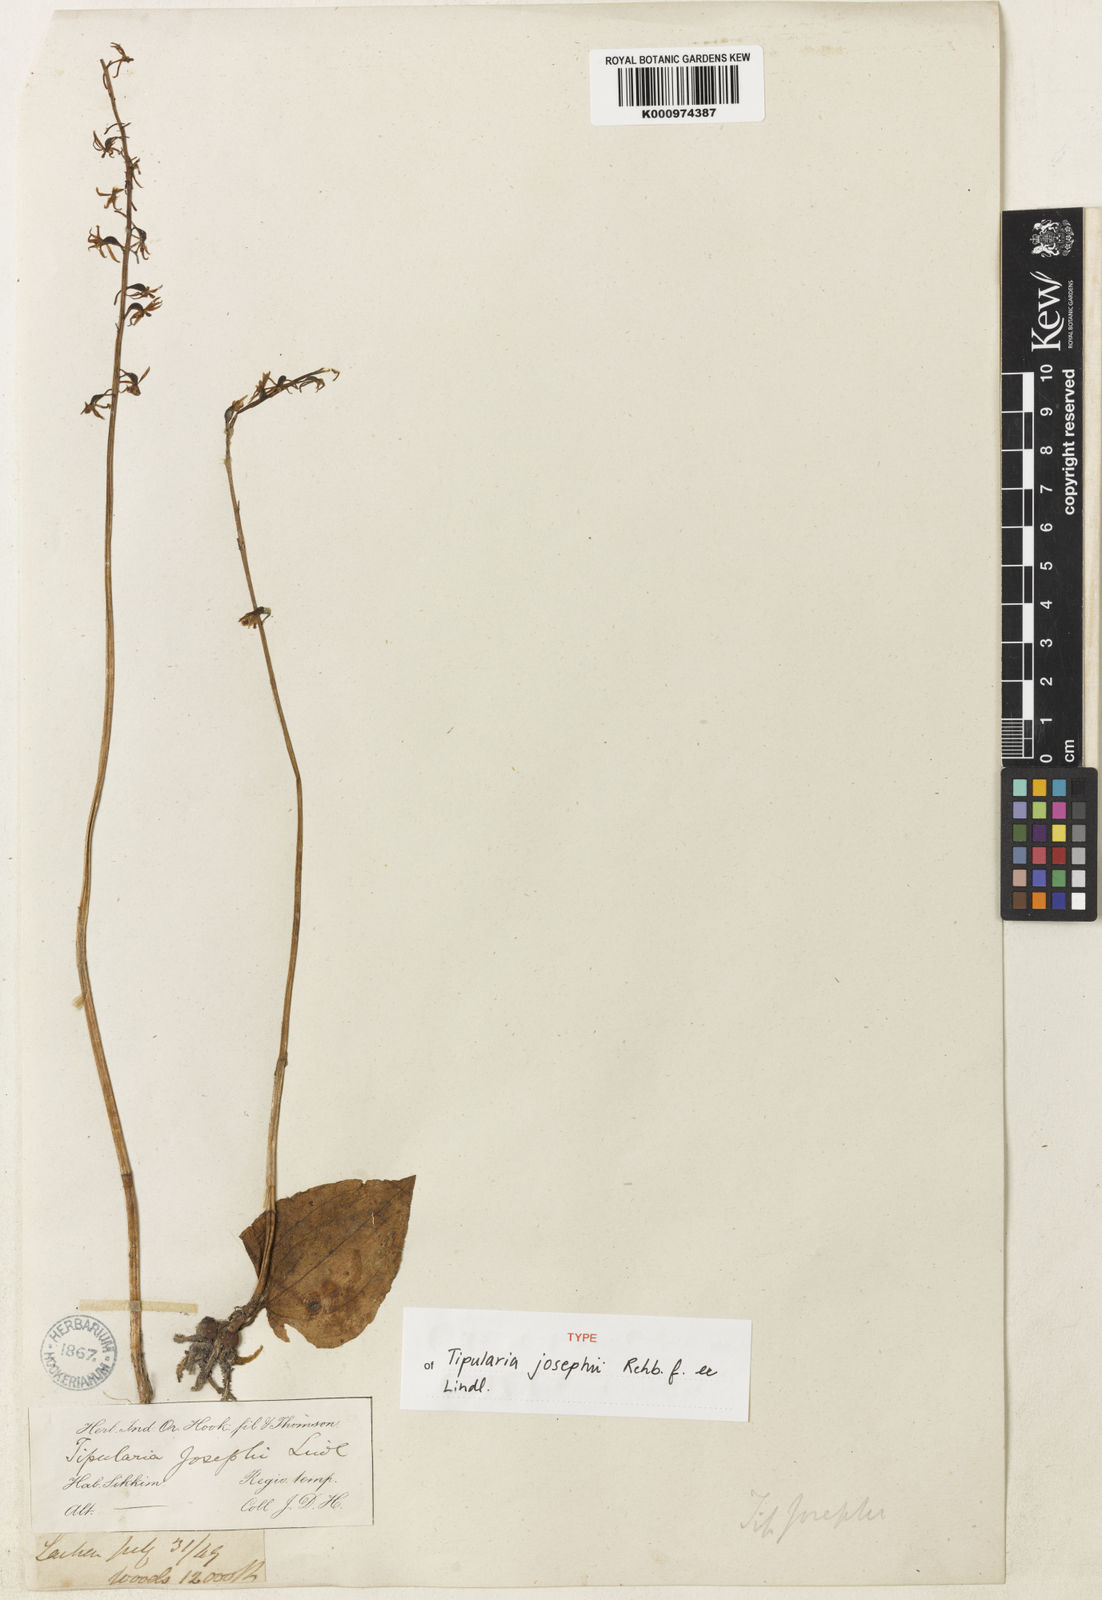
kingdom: Plantae
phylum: Tracheophyta
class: Liliopsida
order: Asparagales
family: Orchidaceae
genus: Tipularia
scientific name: Tipularia josephi
